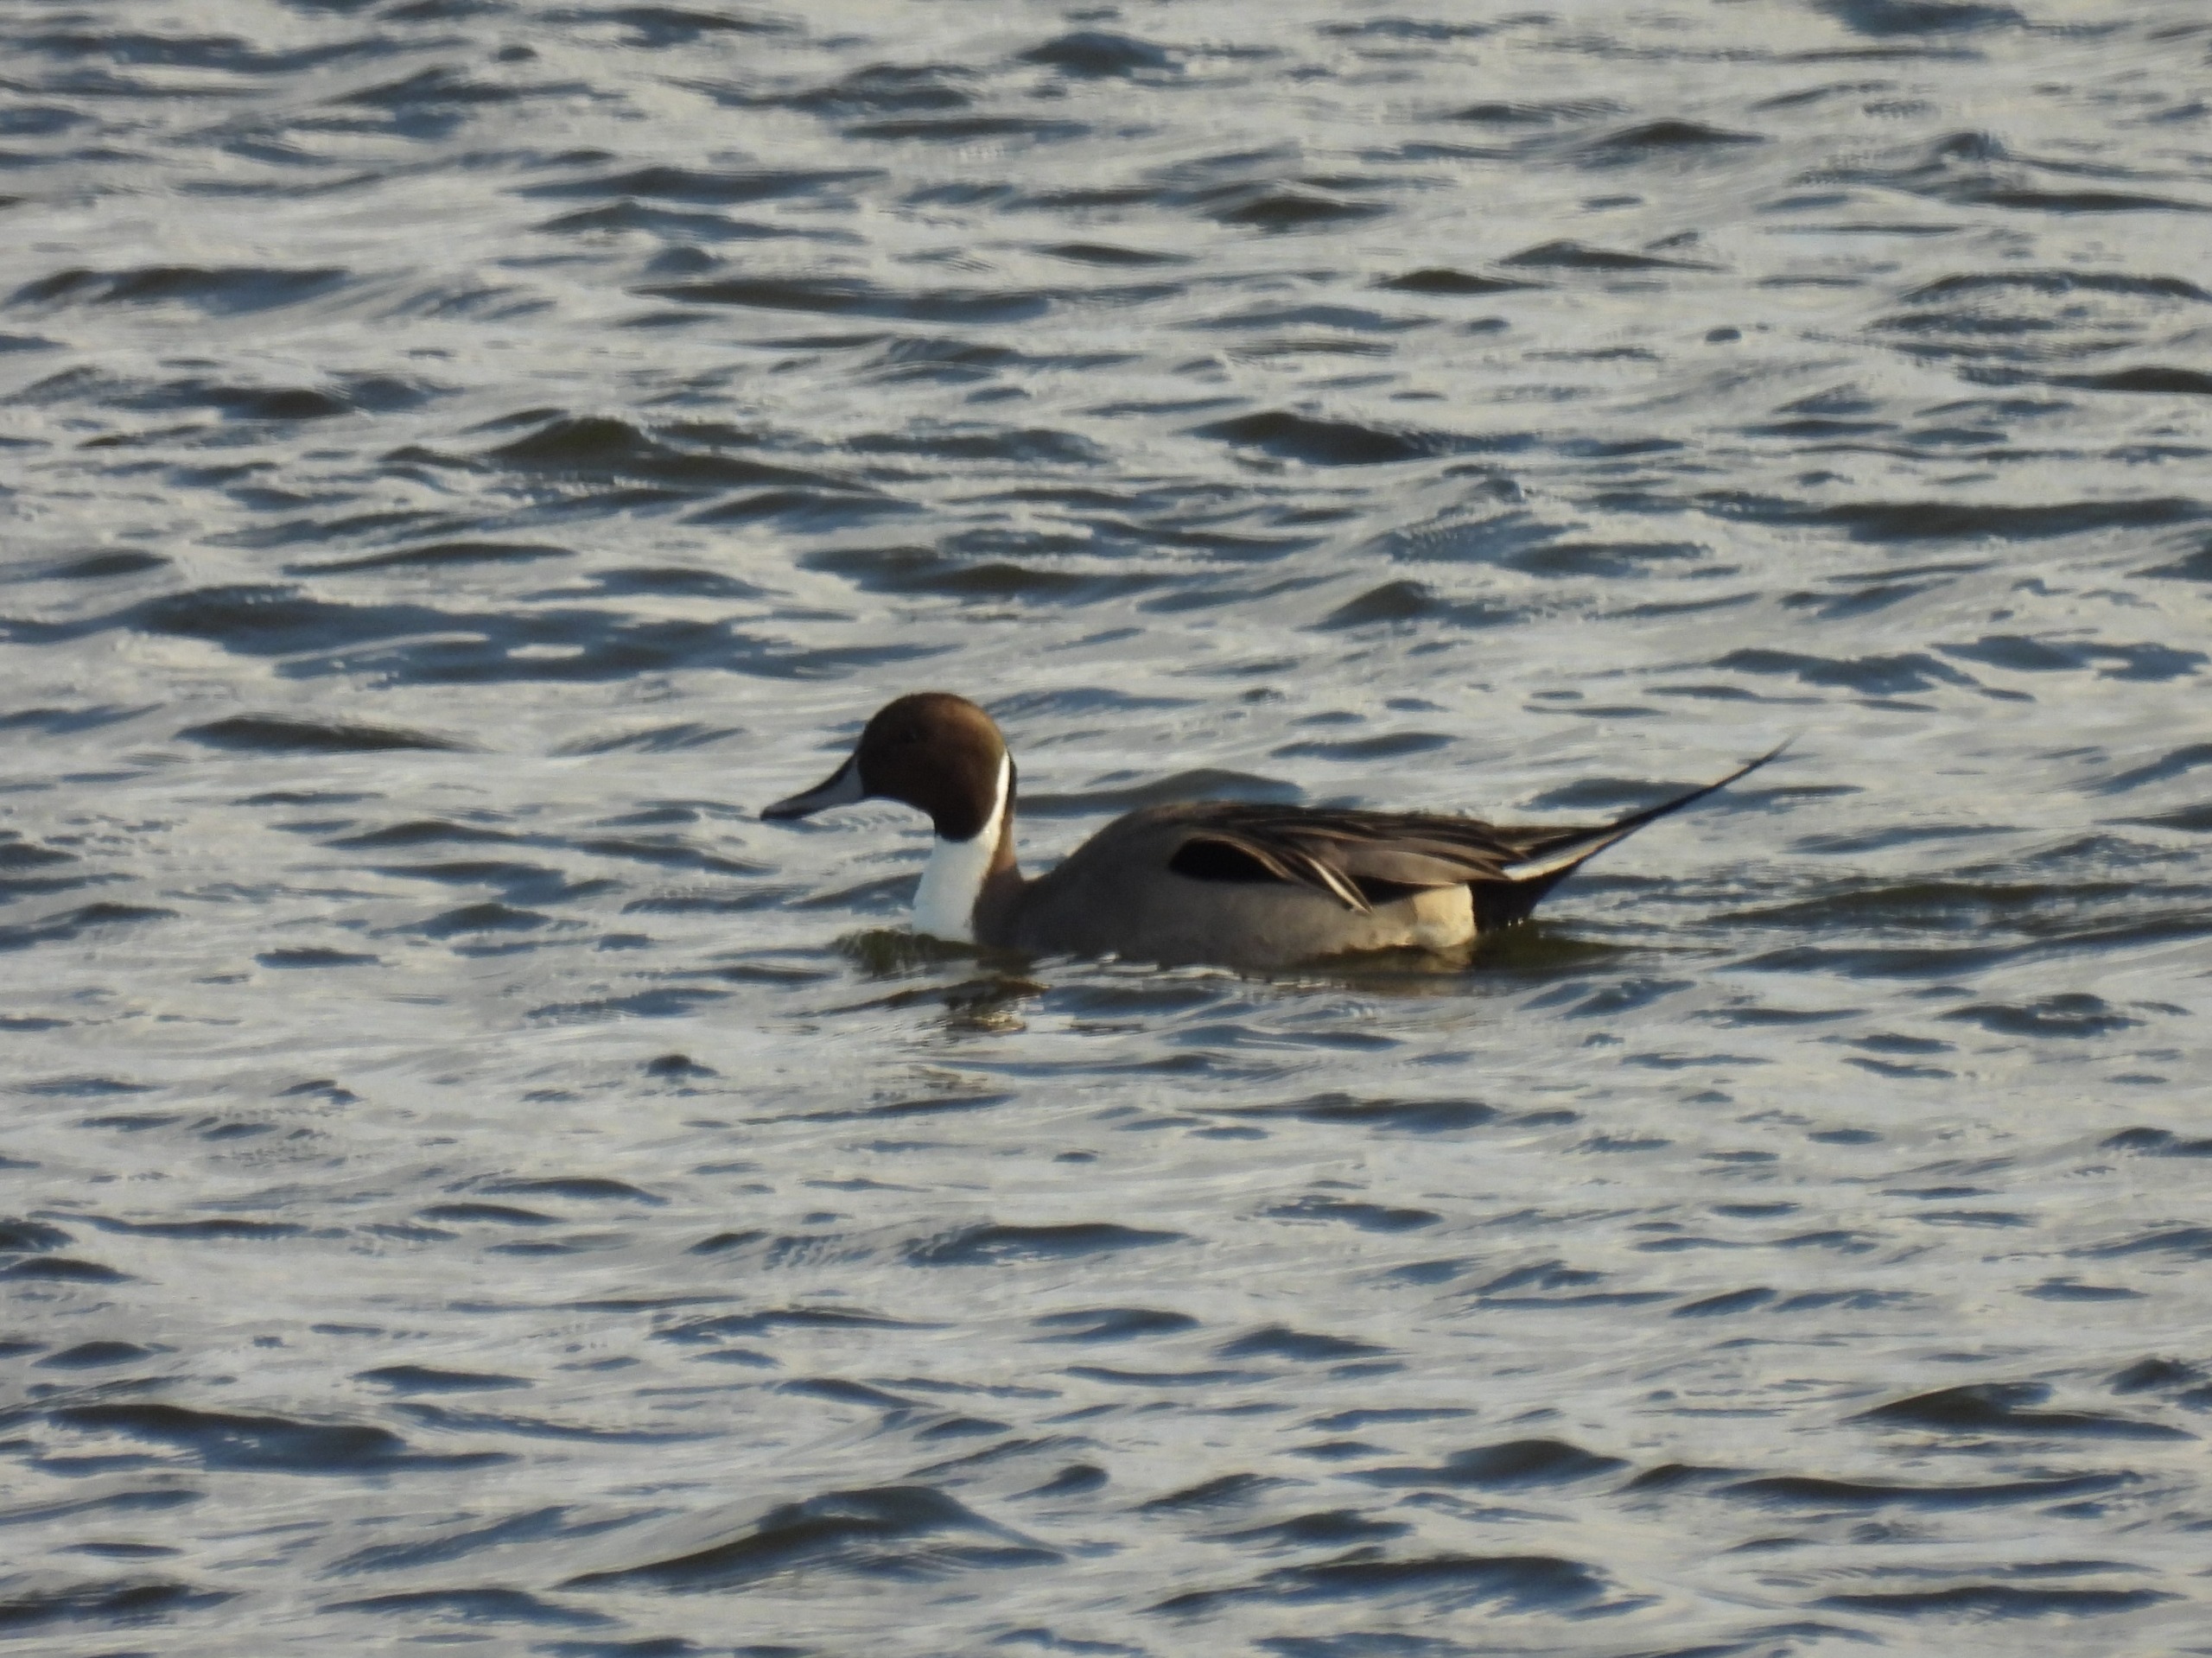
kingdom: Animalia
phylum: Chordata
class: Aves
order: Anseriformes
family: Anatidae
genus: Anas
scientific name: Anas acuta
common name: Spidsand
